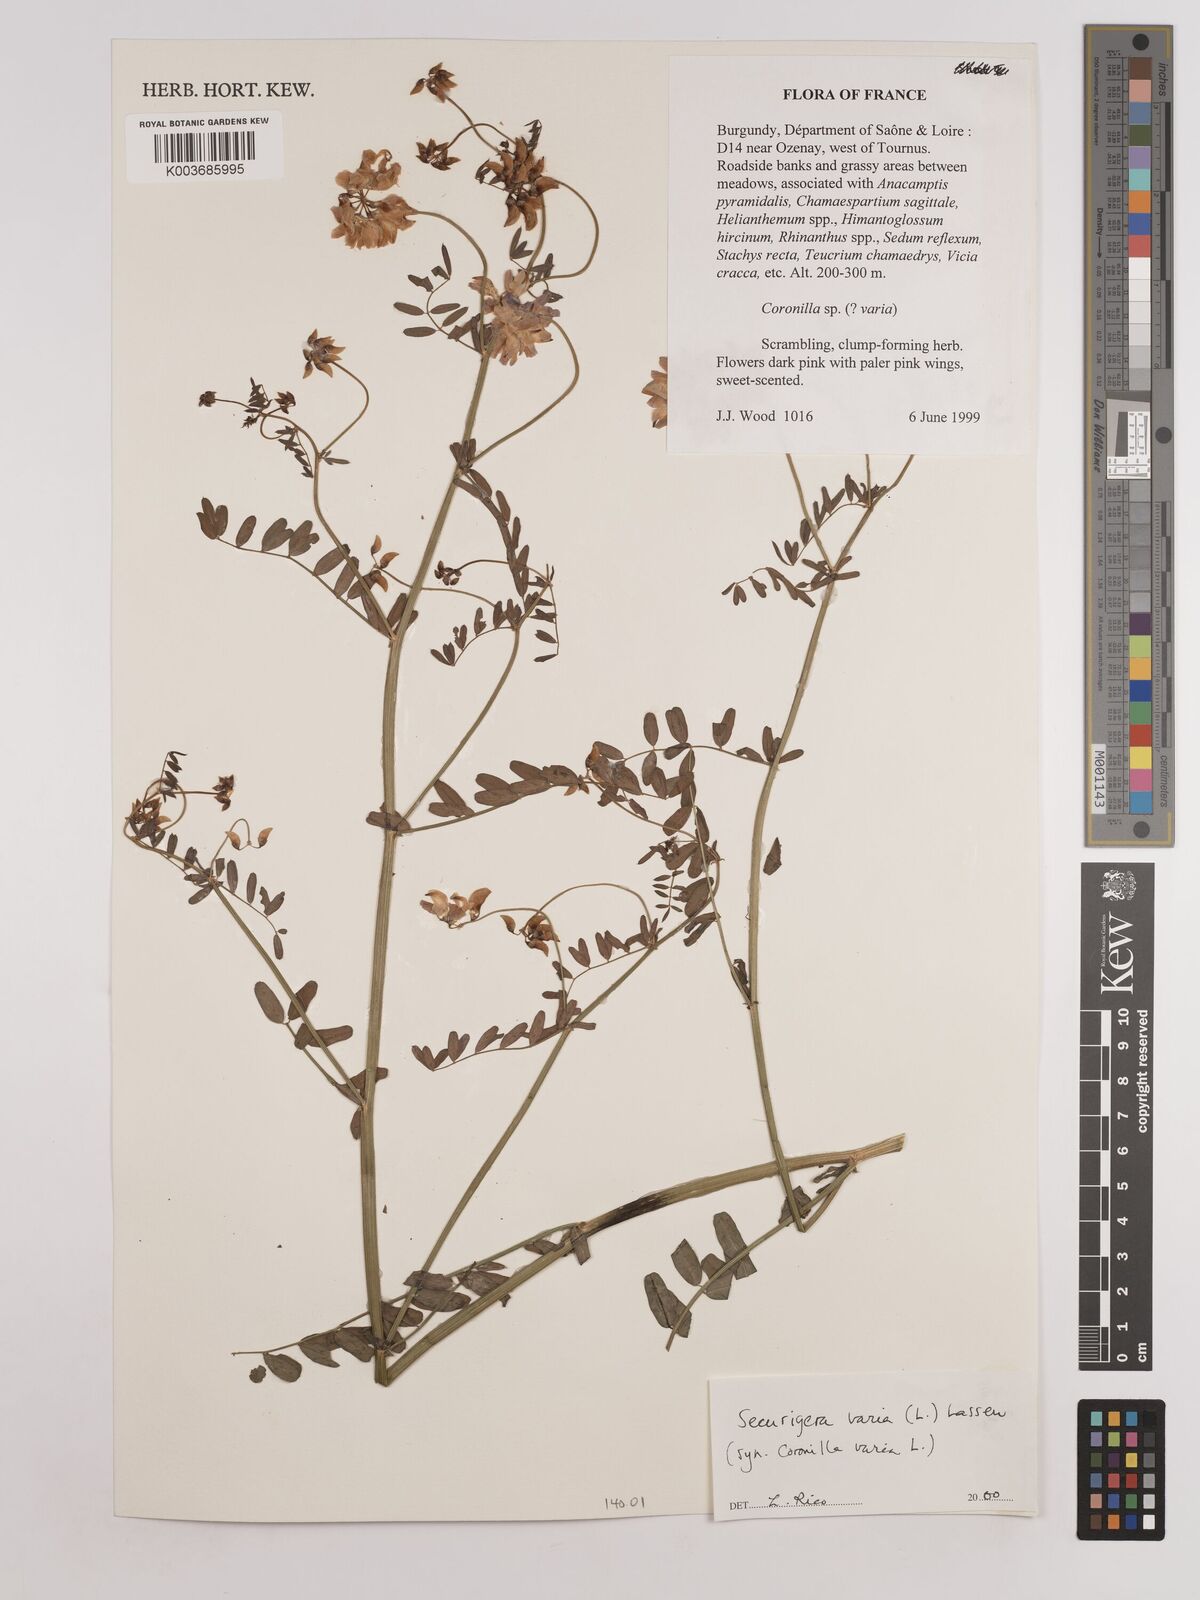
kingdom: Plantae
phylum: Tracheophyta
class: Magnoliopsida
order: Fabales
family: Fabaceae
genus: Coronilla
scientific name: Coronilla varia
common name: Crownvetch
